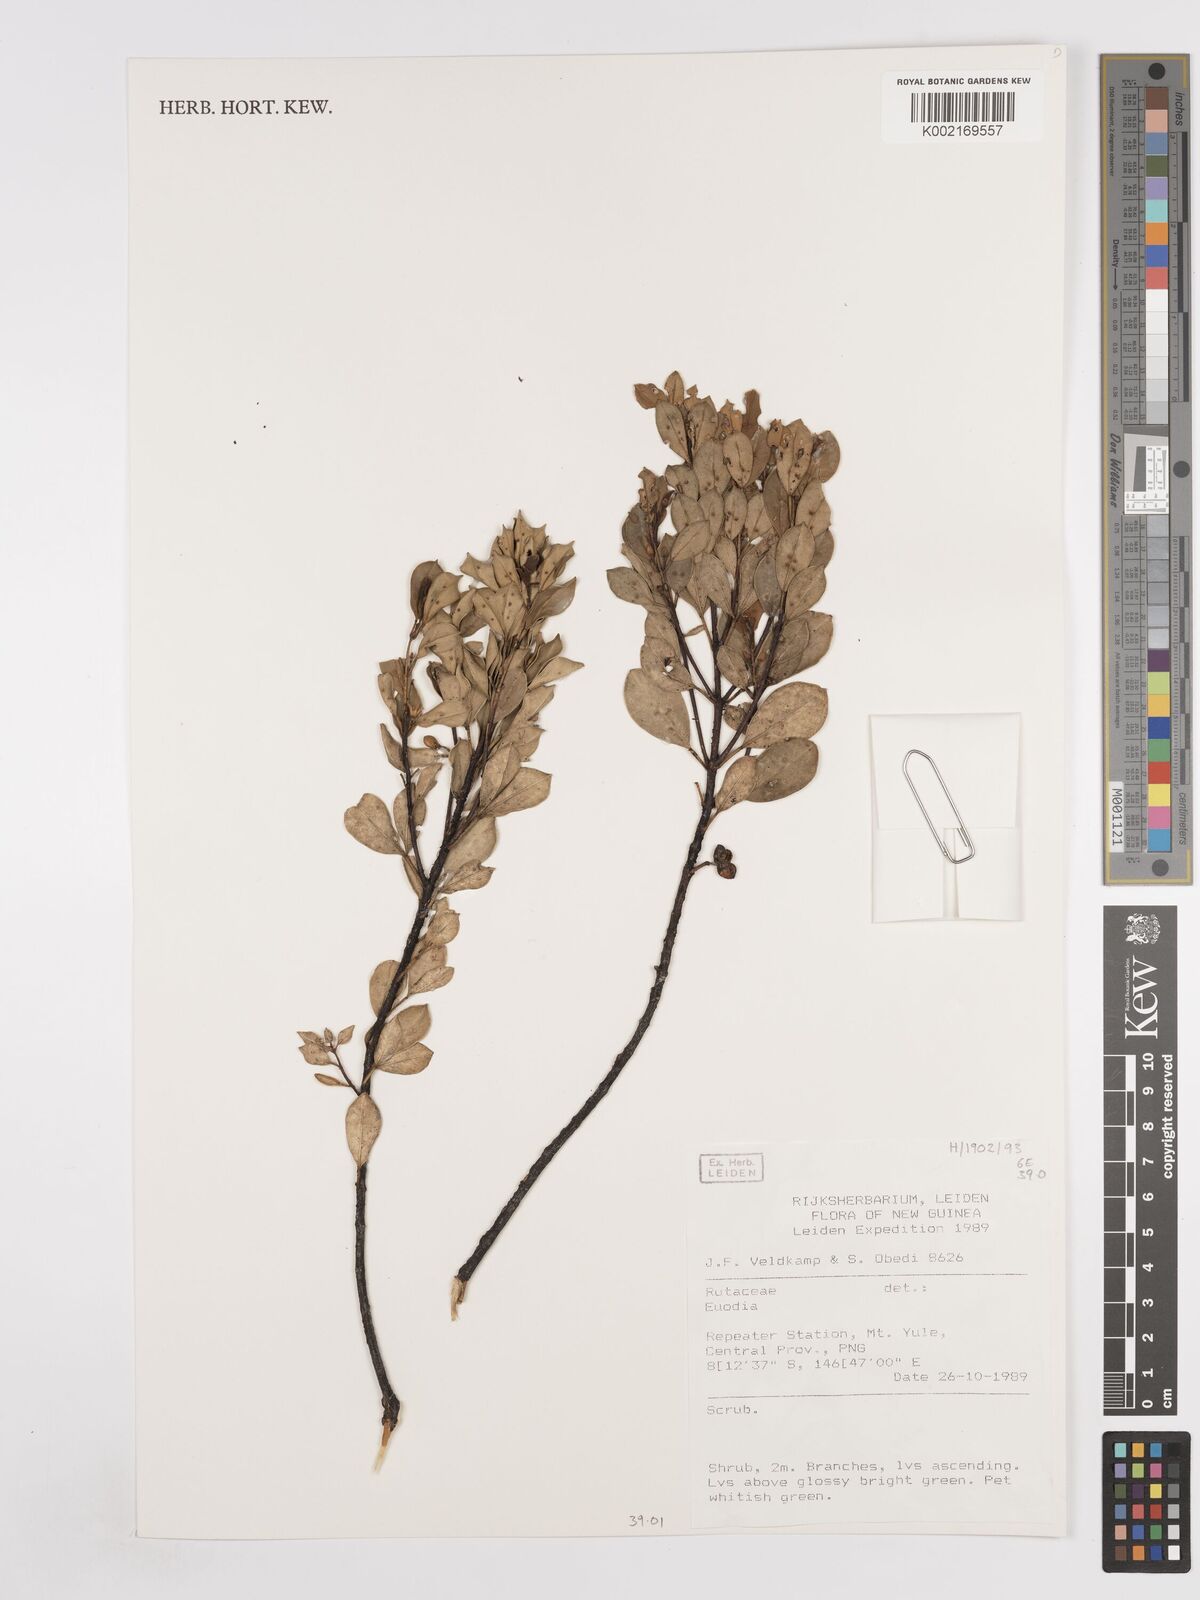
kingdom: Plantae
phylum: Tracheophyta
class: Magnoliopsida
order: Sapindales
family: Rutaceae
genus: Euodia
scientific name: Euodia
